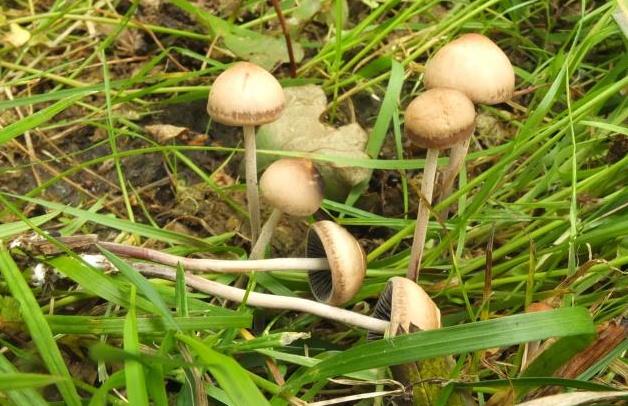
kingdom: Fungi
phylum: Basidiomycota
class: Agaricomycetes
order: Agaricales
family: Bolbitiaceae
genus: Panaeolus
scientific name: Panaeolus acuminatus
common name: høj glanshat
